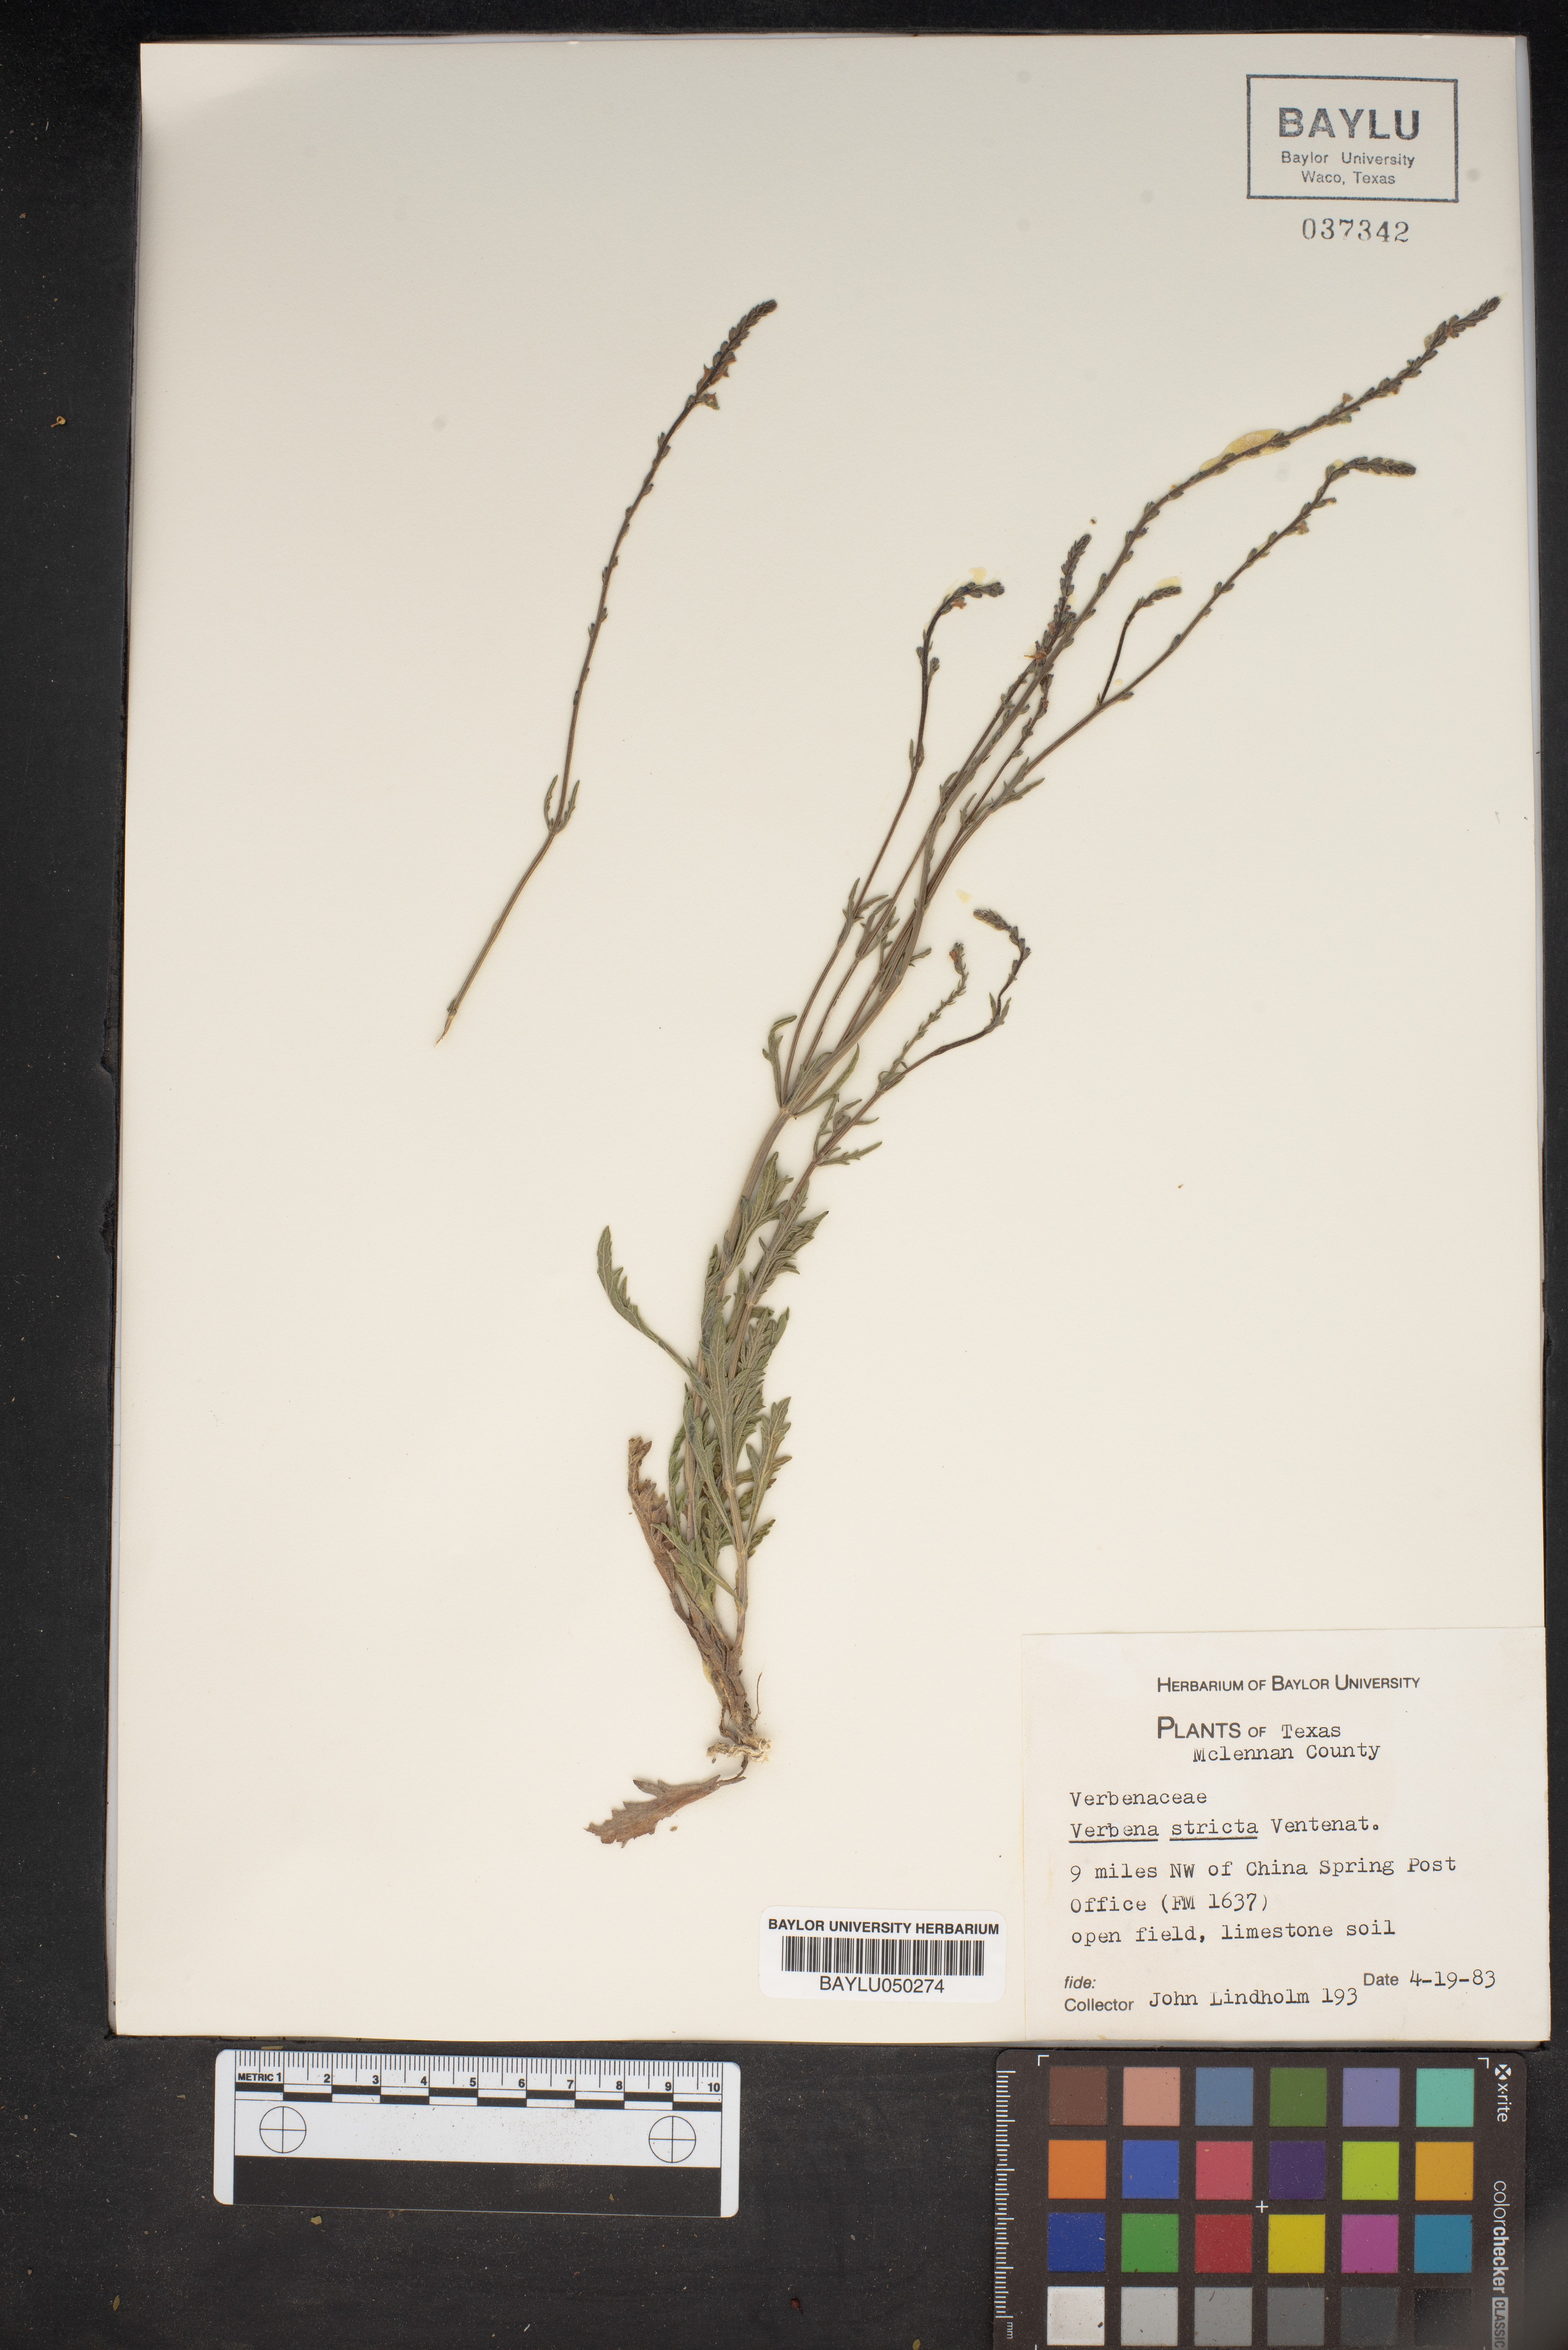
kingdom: Plantae
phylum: Tracheophyta
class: Magnoliopsida
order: Lamiales
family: Verbenaceae
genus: Verbena
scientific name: Verbena stricta
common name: Hoary vervain
